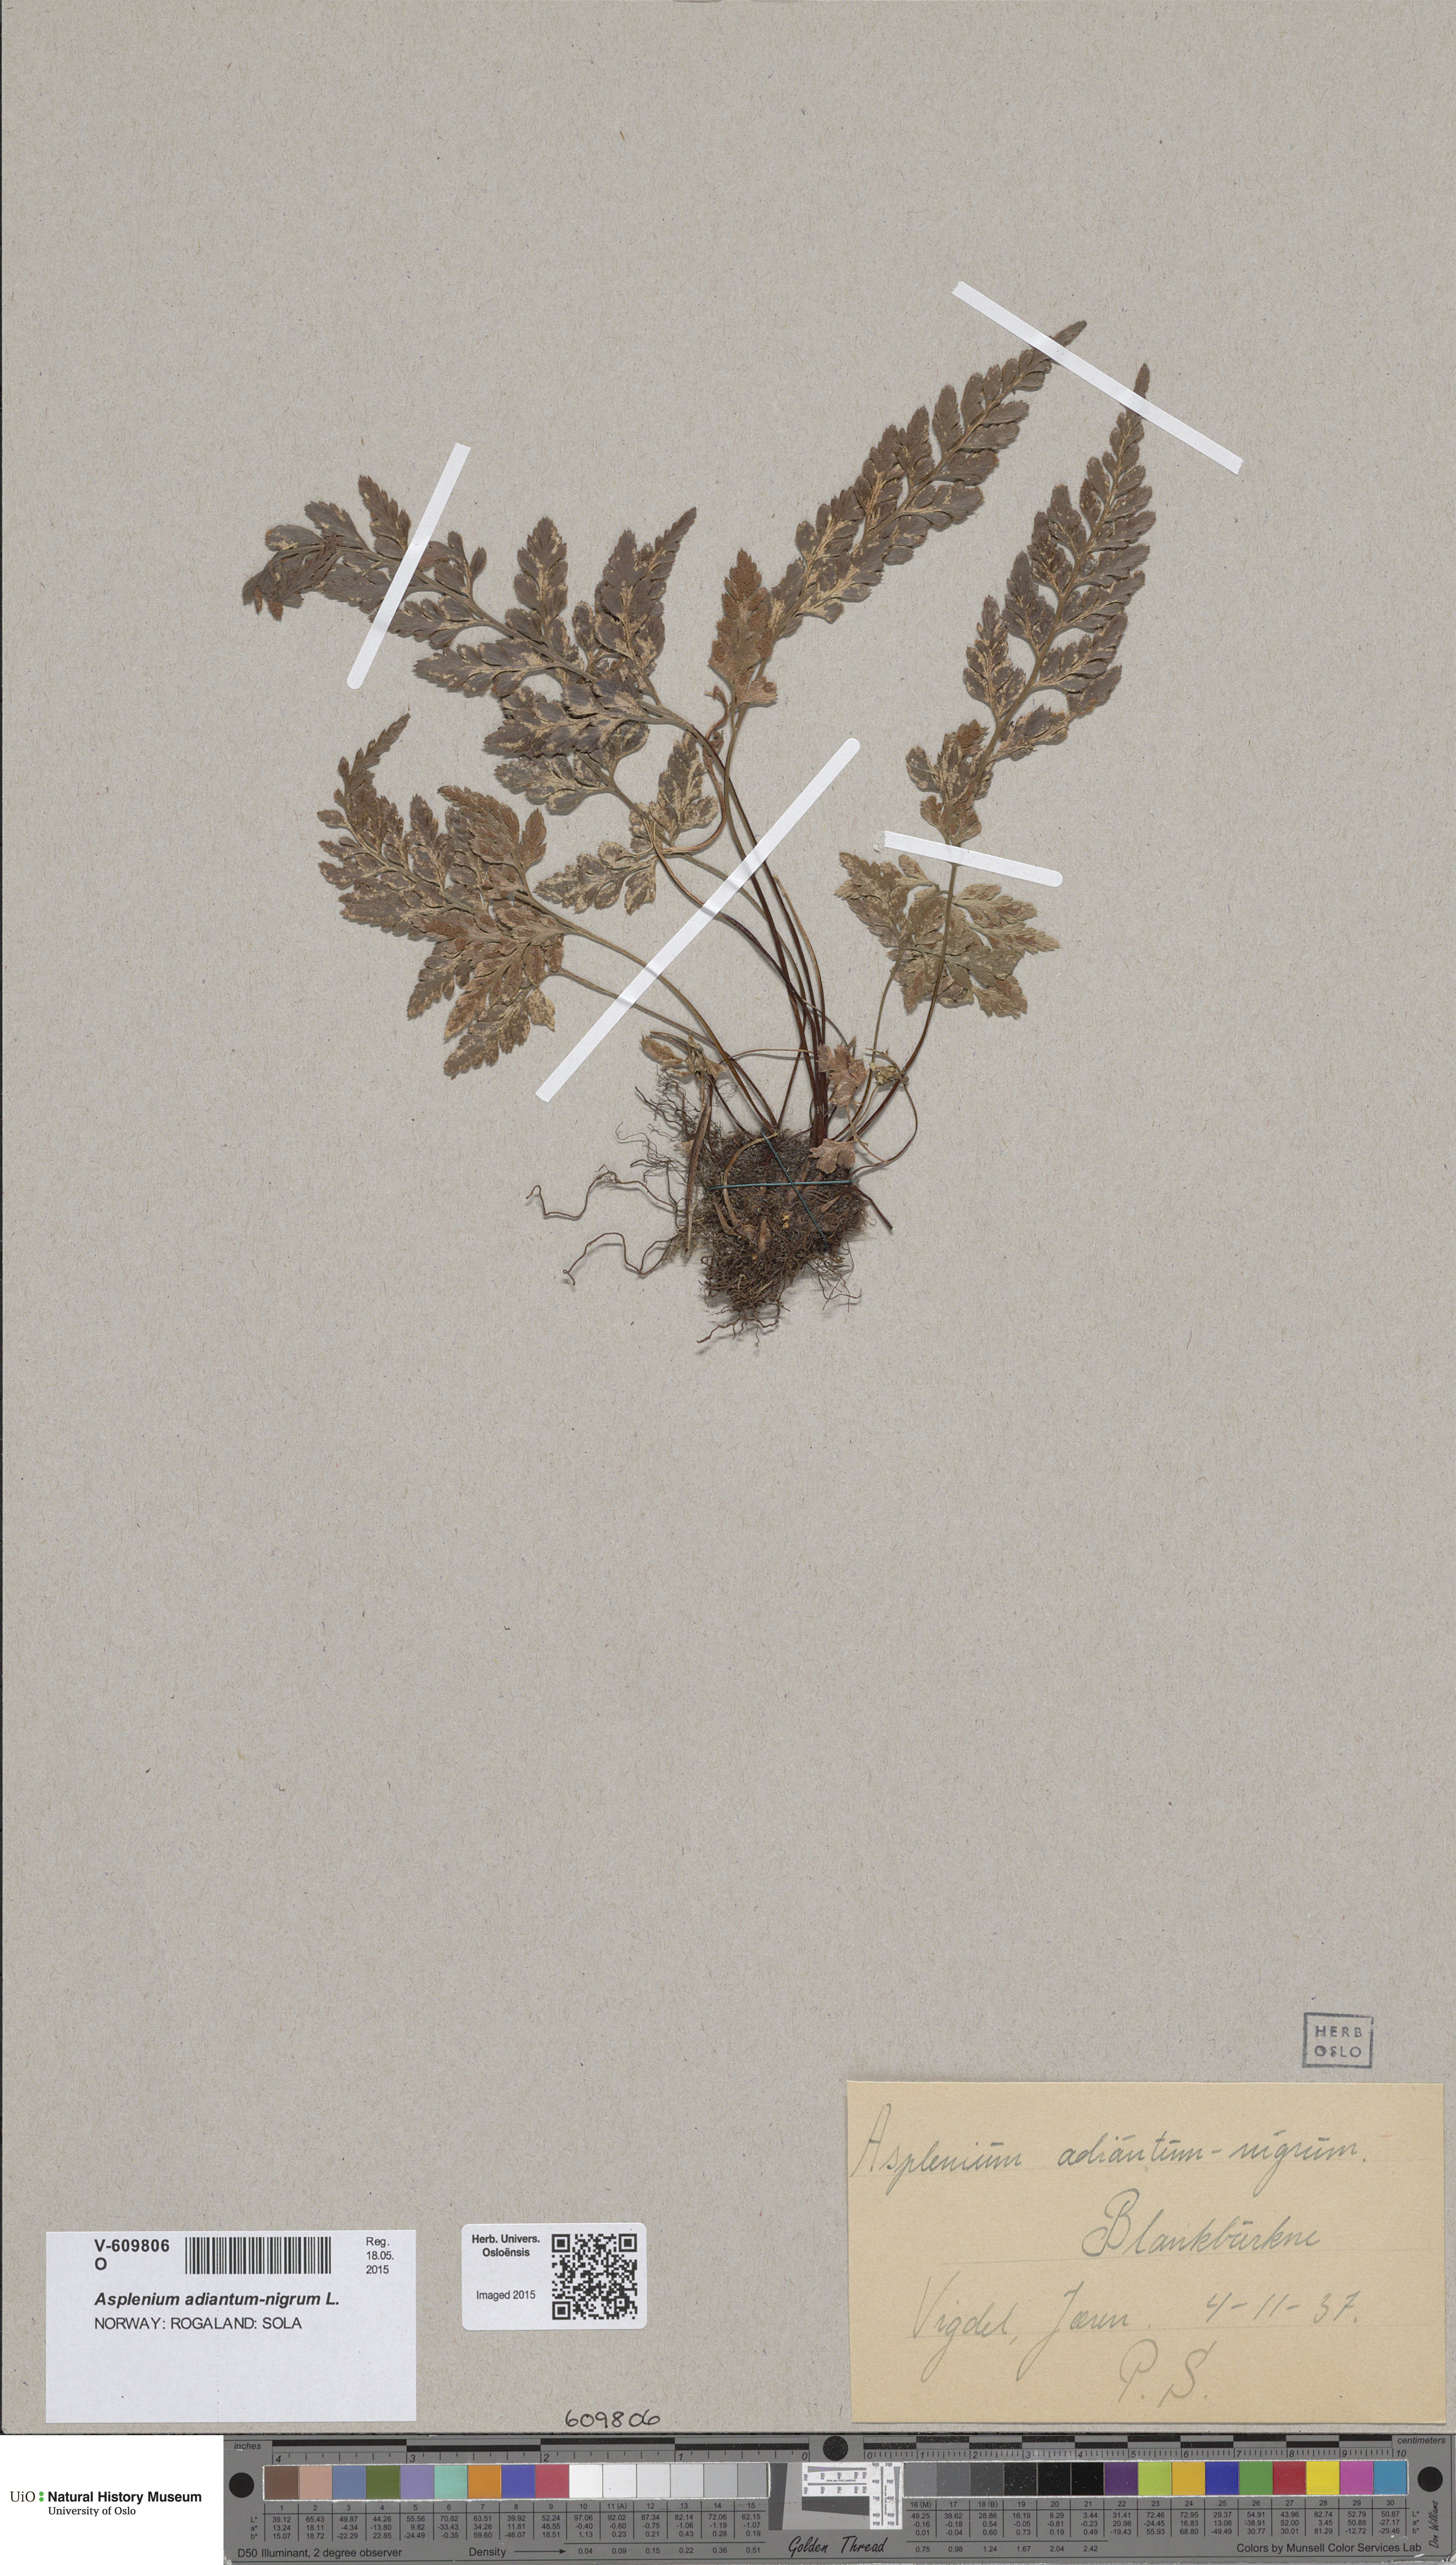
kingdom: Plantae
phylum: Tracheophyta
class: Polypodiopsida
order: Polypodiales
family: Aspleniaceae
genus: Asplenium
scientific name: Asplenium adiantum-nigrum
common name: Black spleenwort
